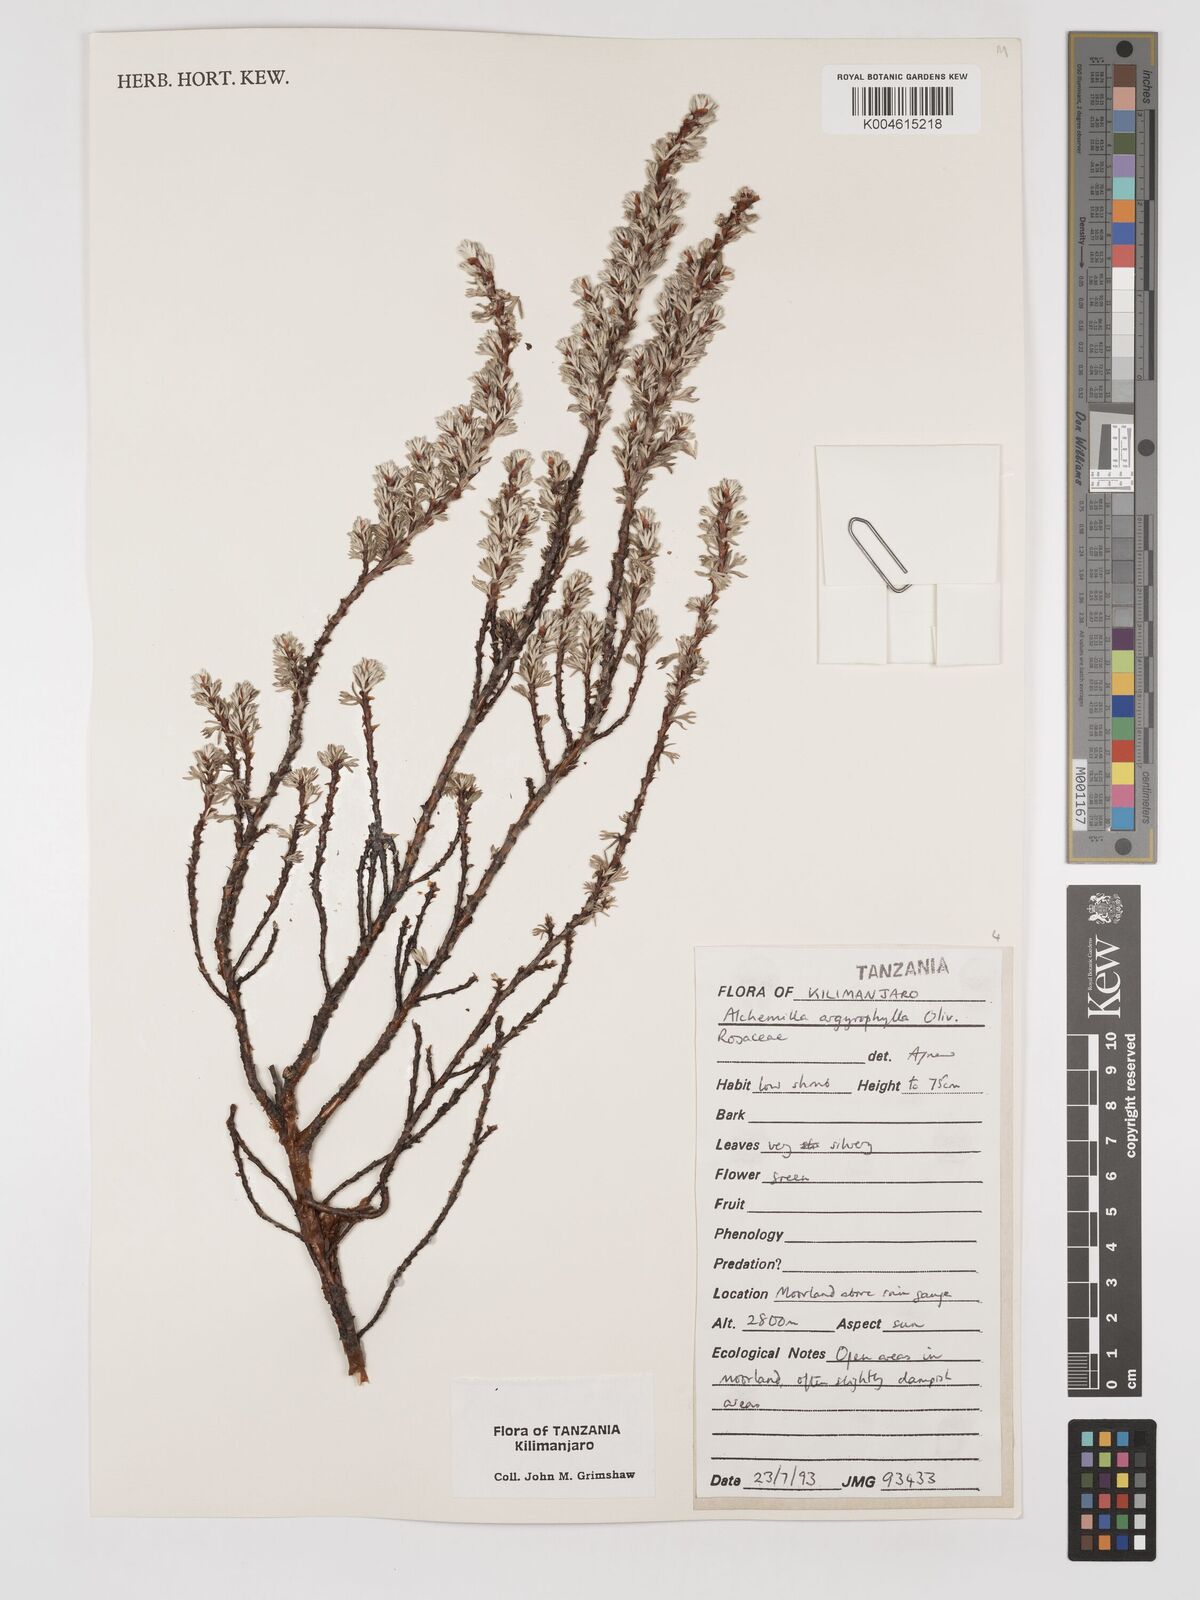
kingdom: Plantae
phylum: Tracheophyta
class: Magnoliopsida
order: Rosales
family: Rosaceae
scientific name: Rosaceae
